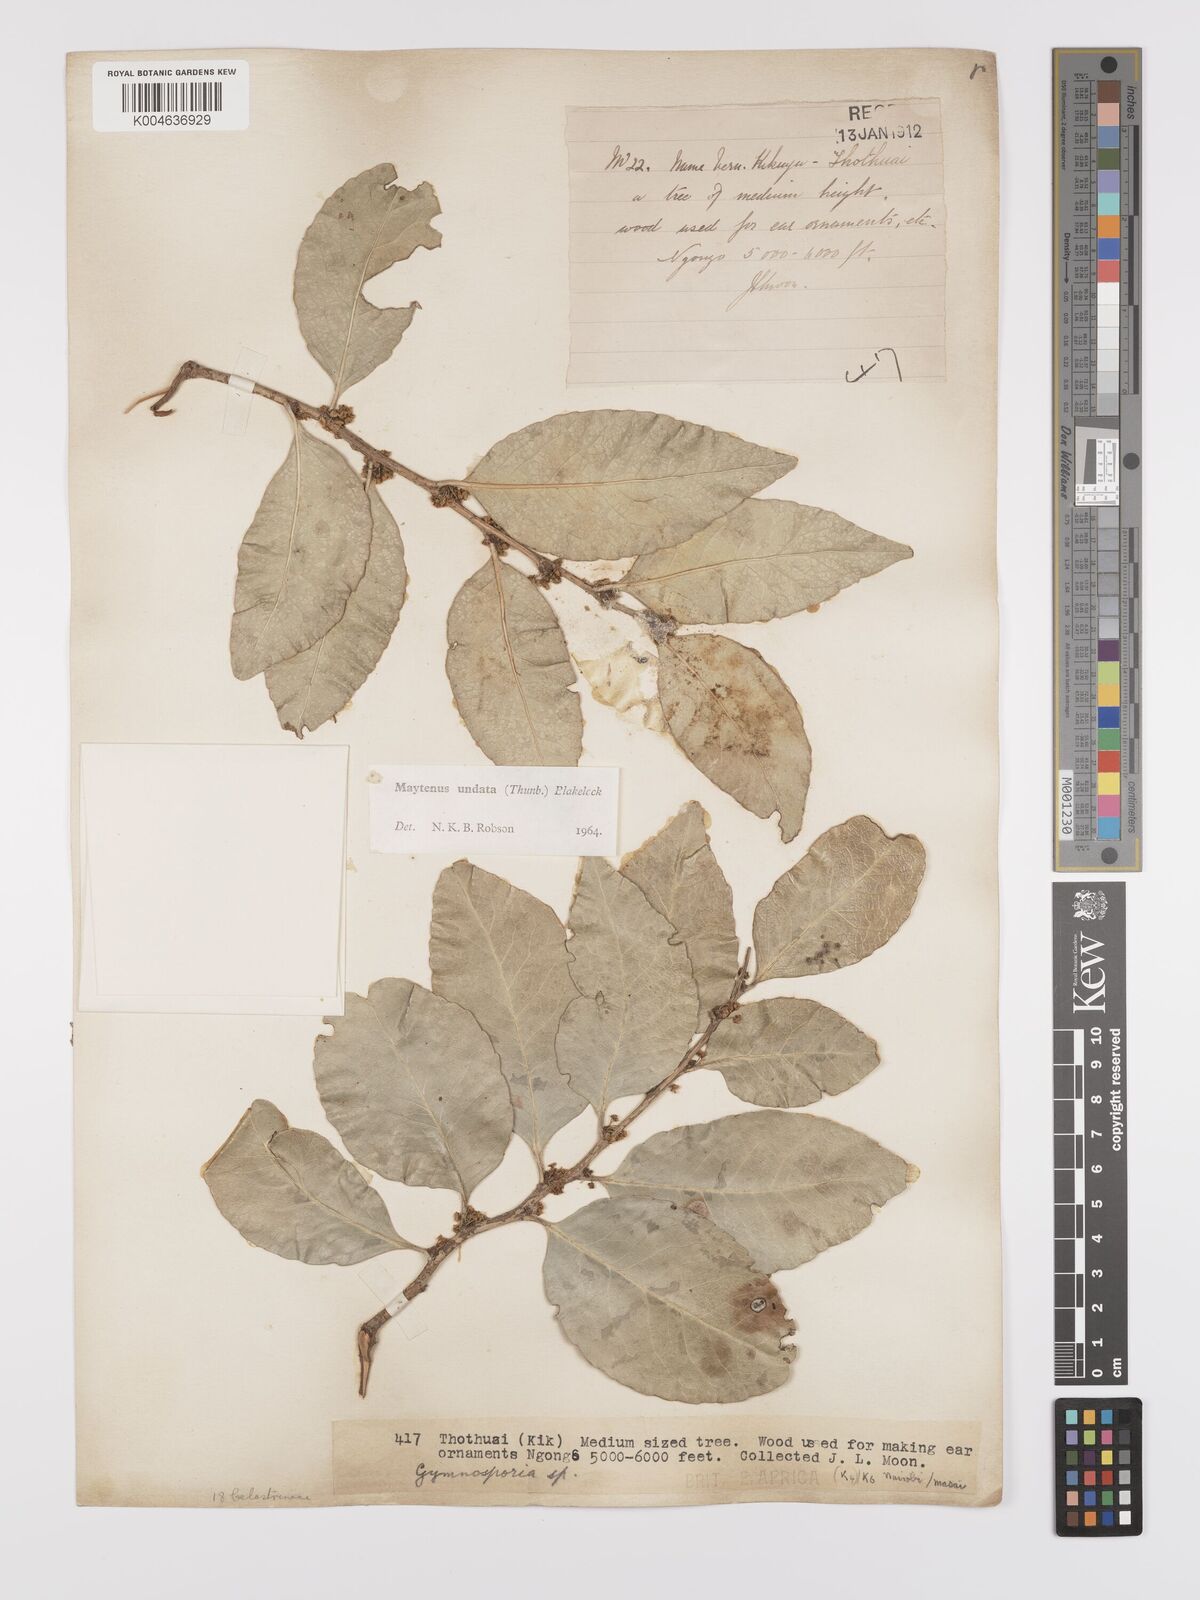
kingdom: Plantae
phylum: Tracheophyta
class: Magnoliopsida
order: Celastrales
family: Celastraceae
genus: Gymnosporia
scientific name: Gymnosporia undata
